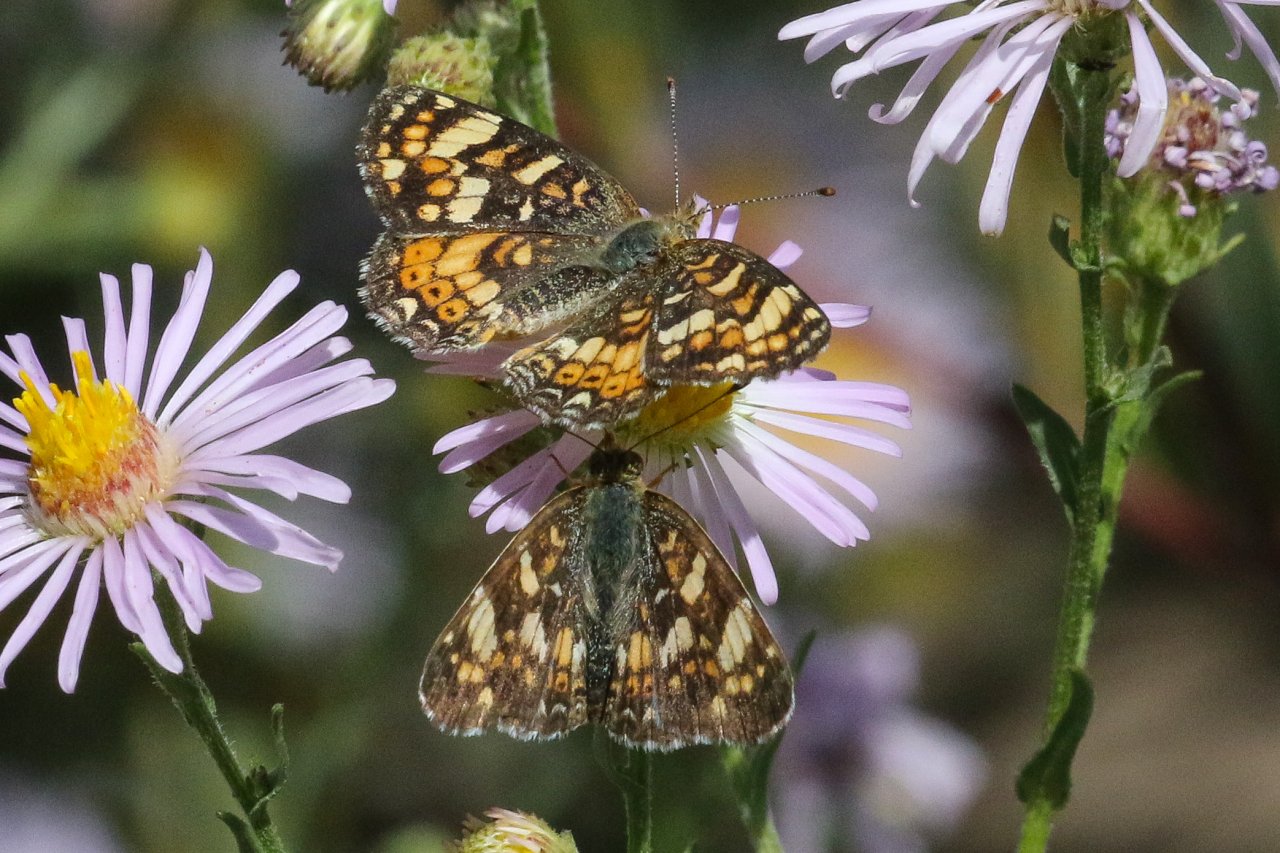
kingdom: Animalia
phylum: Arthropoda
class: Insecta
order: Lepidoptera
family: Nymphalidae
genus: Phyciodes
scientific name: Phyciodes tharos
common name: Field Crescent
